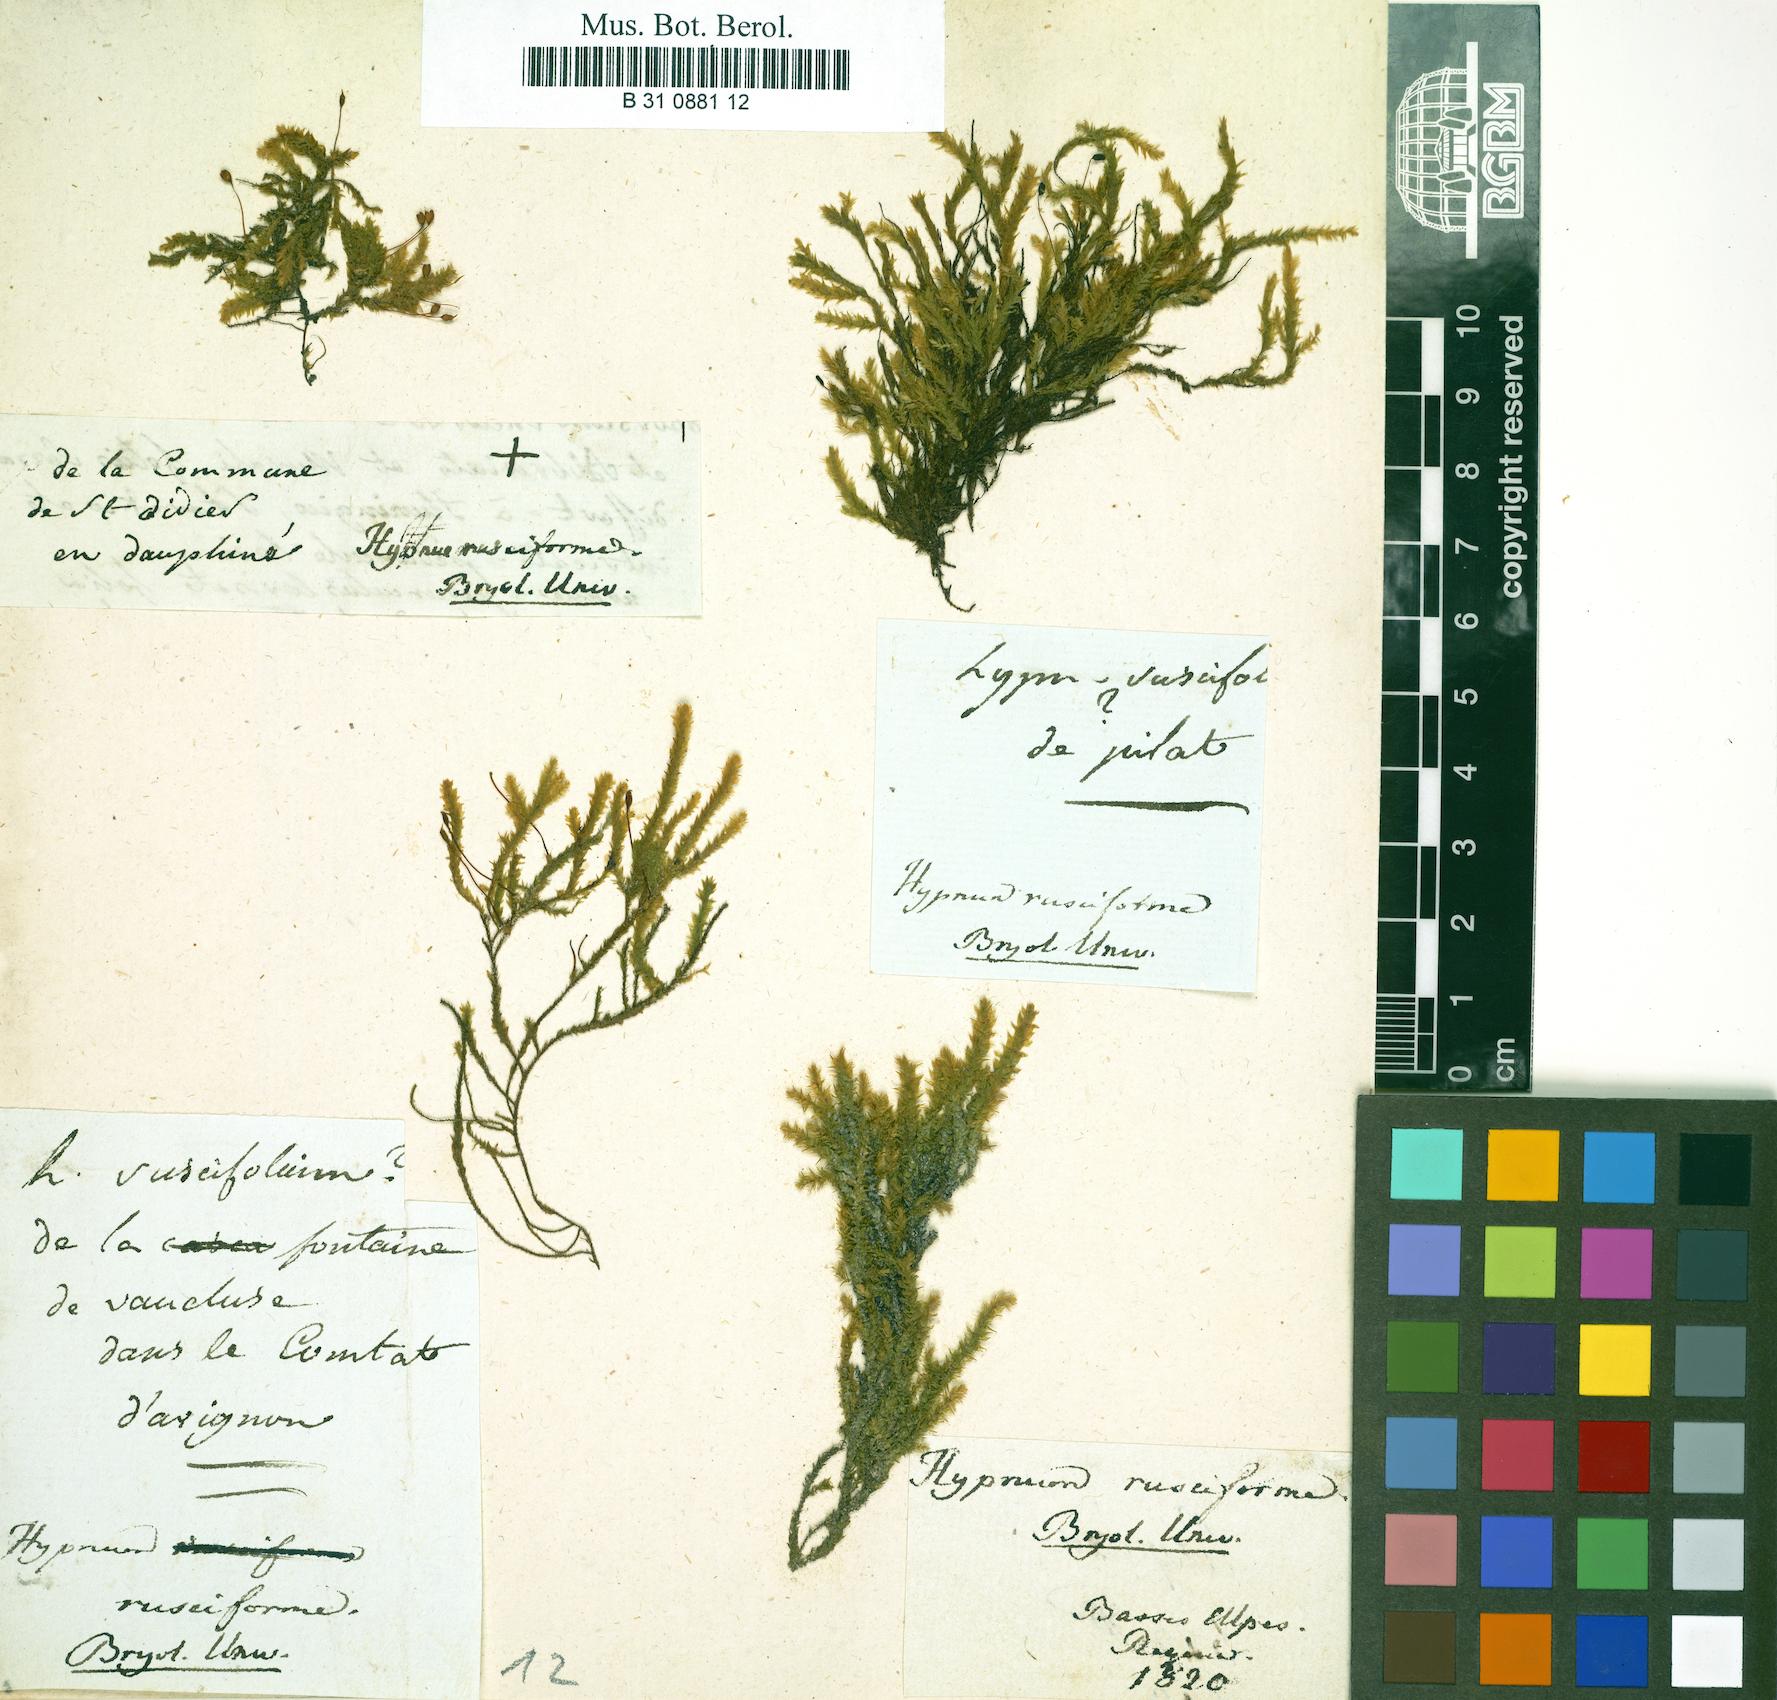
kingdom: Plantae
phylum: Bryophyta
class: Bryopsida
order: Hypnales
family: Brachytheciaceae
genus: Rhynchostegium
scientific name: Rhynchostegium riparioides
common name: Platyhypnidium moss
